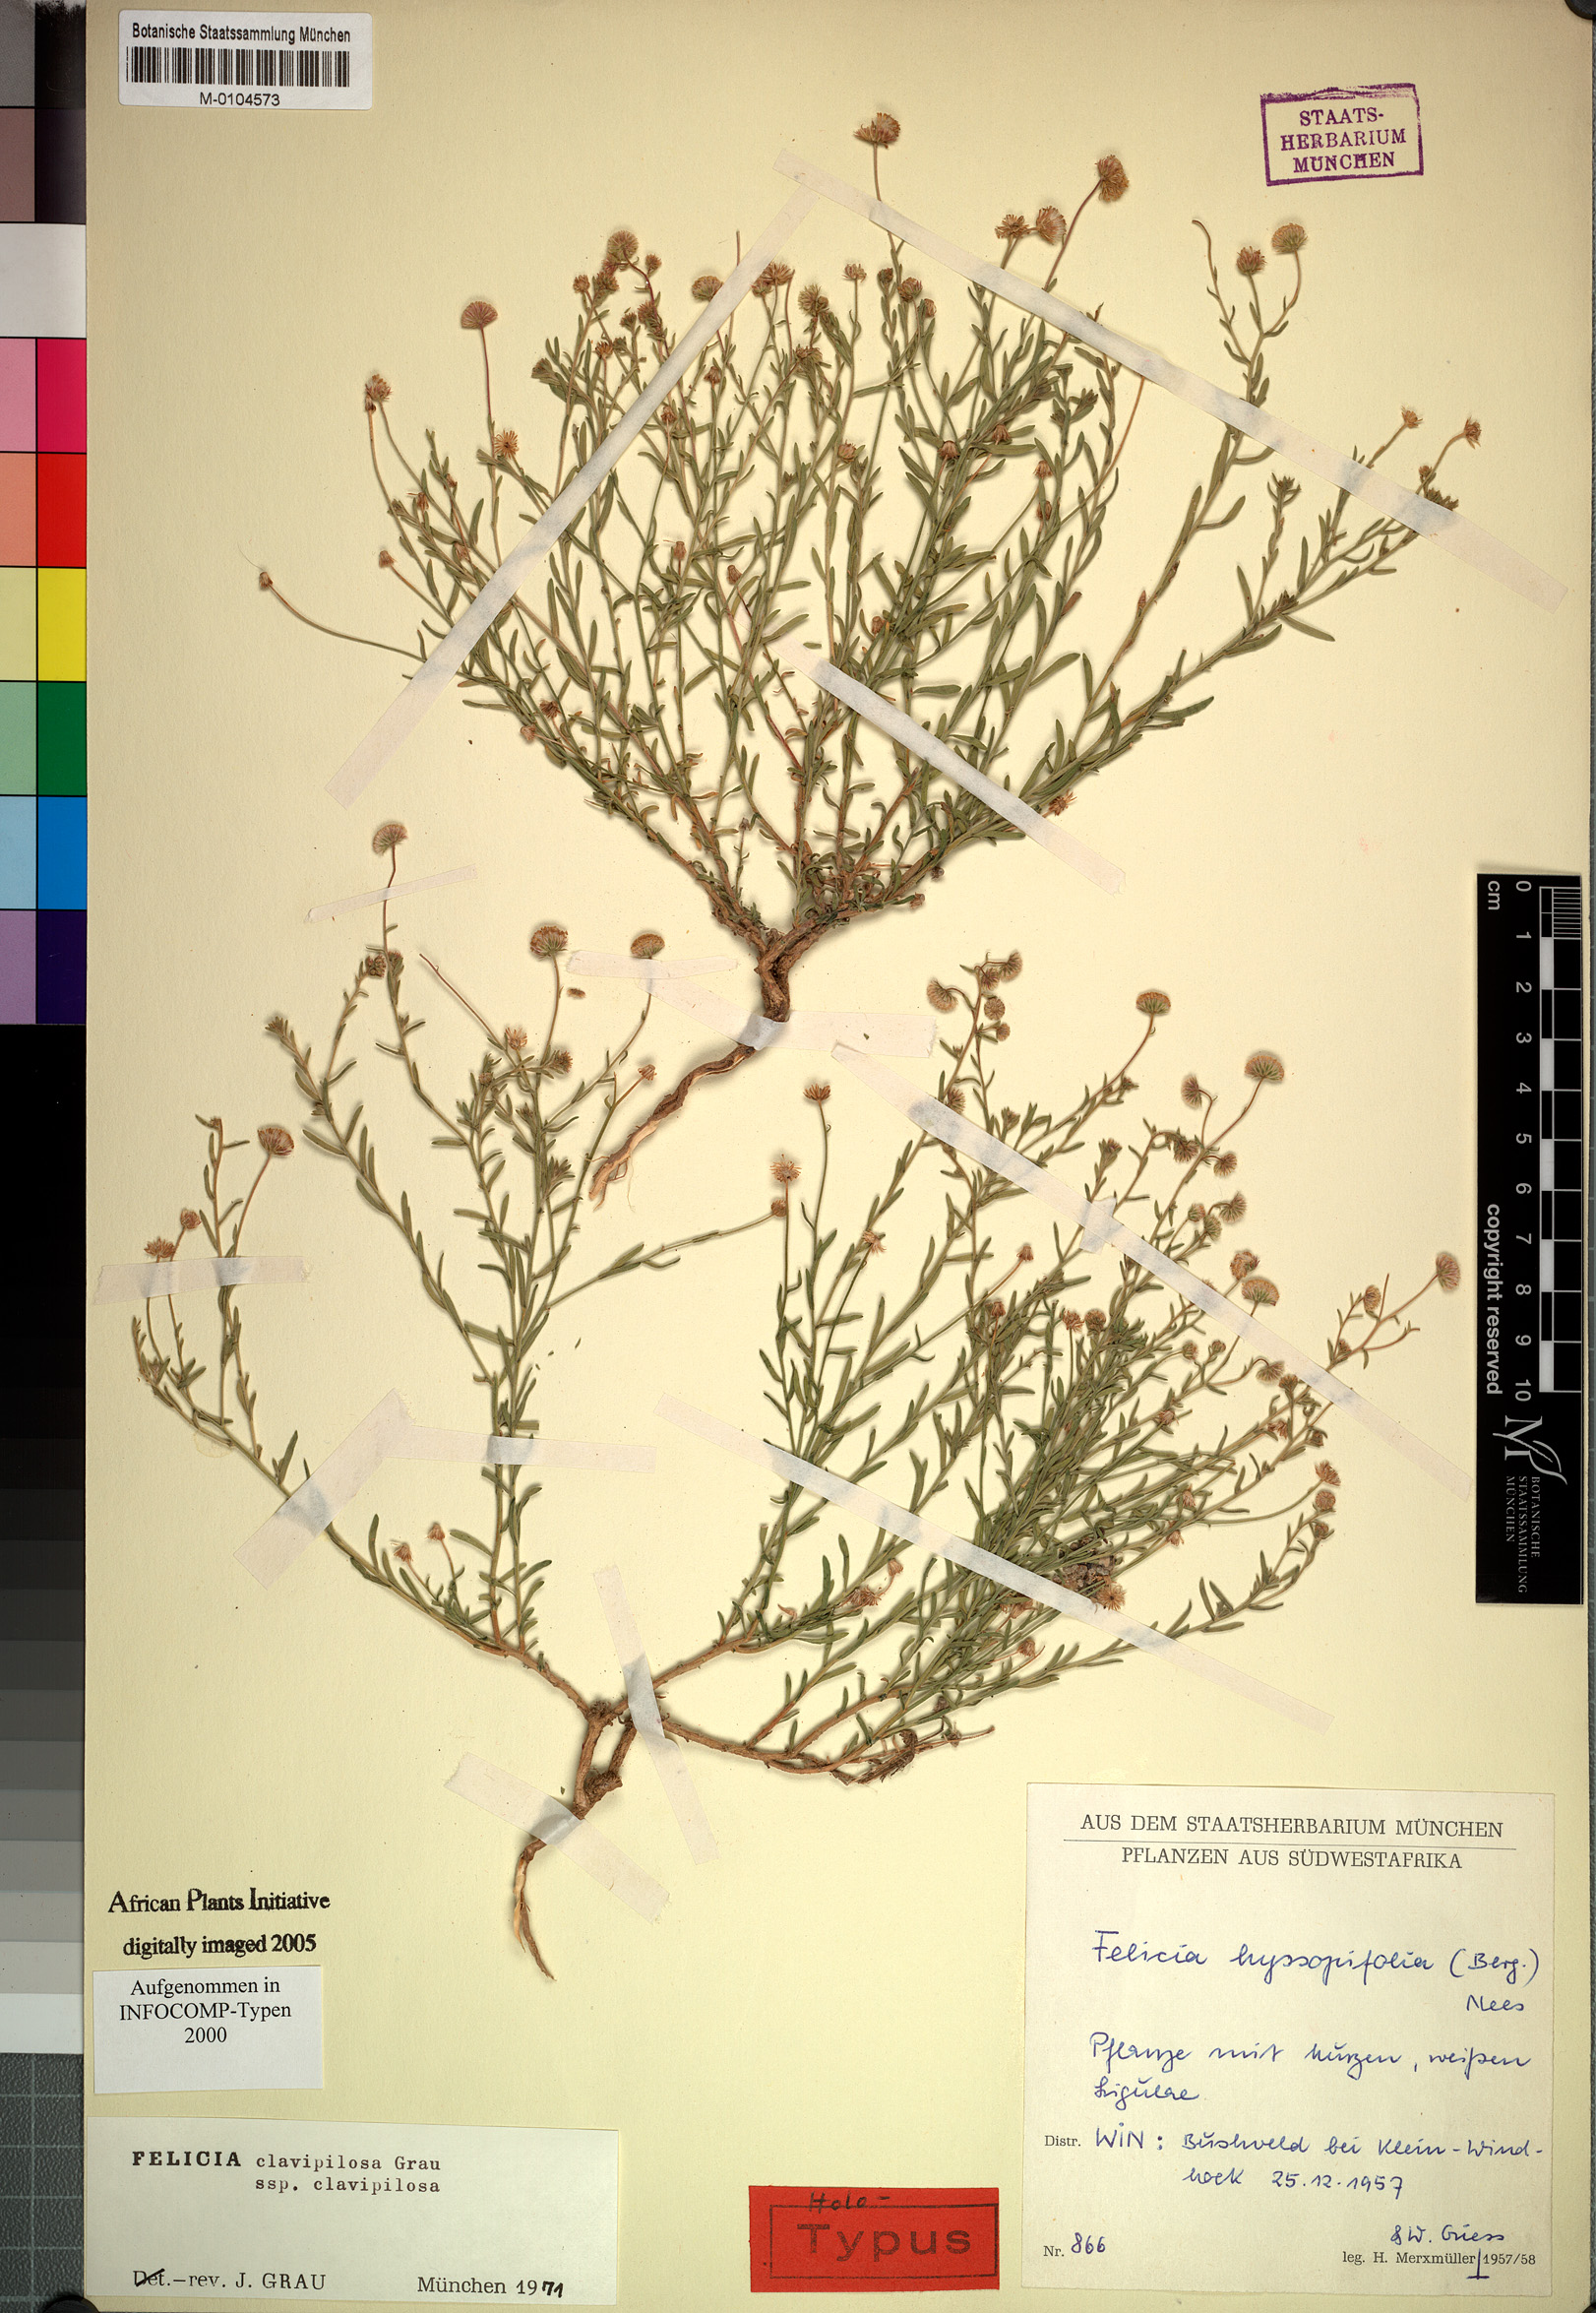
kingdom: Plantae
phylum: Tracheophyta
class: Magnoliopsida
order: Asterales
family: Asteraceae
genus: Felicia
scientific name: Felicia clavipilosa
